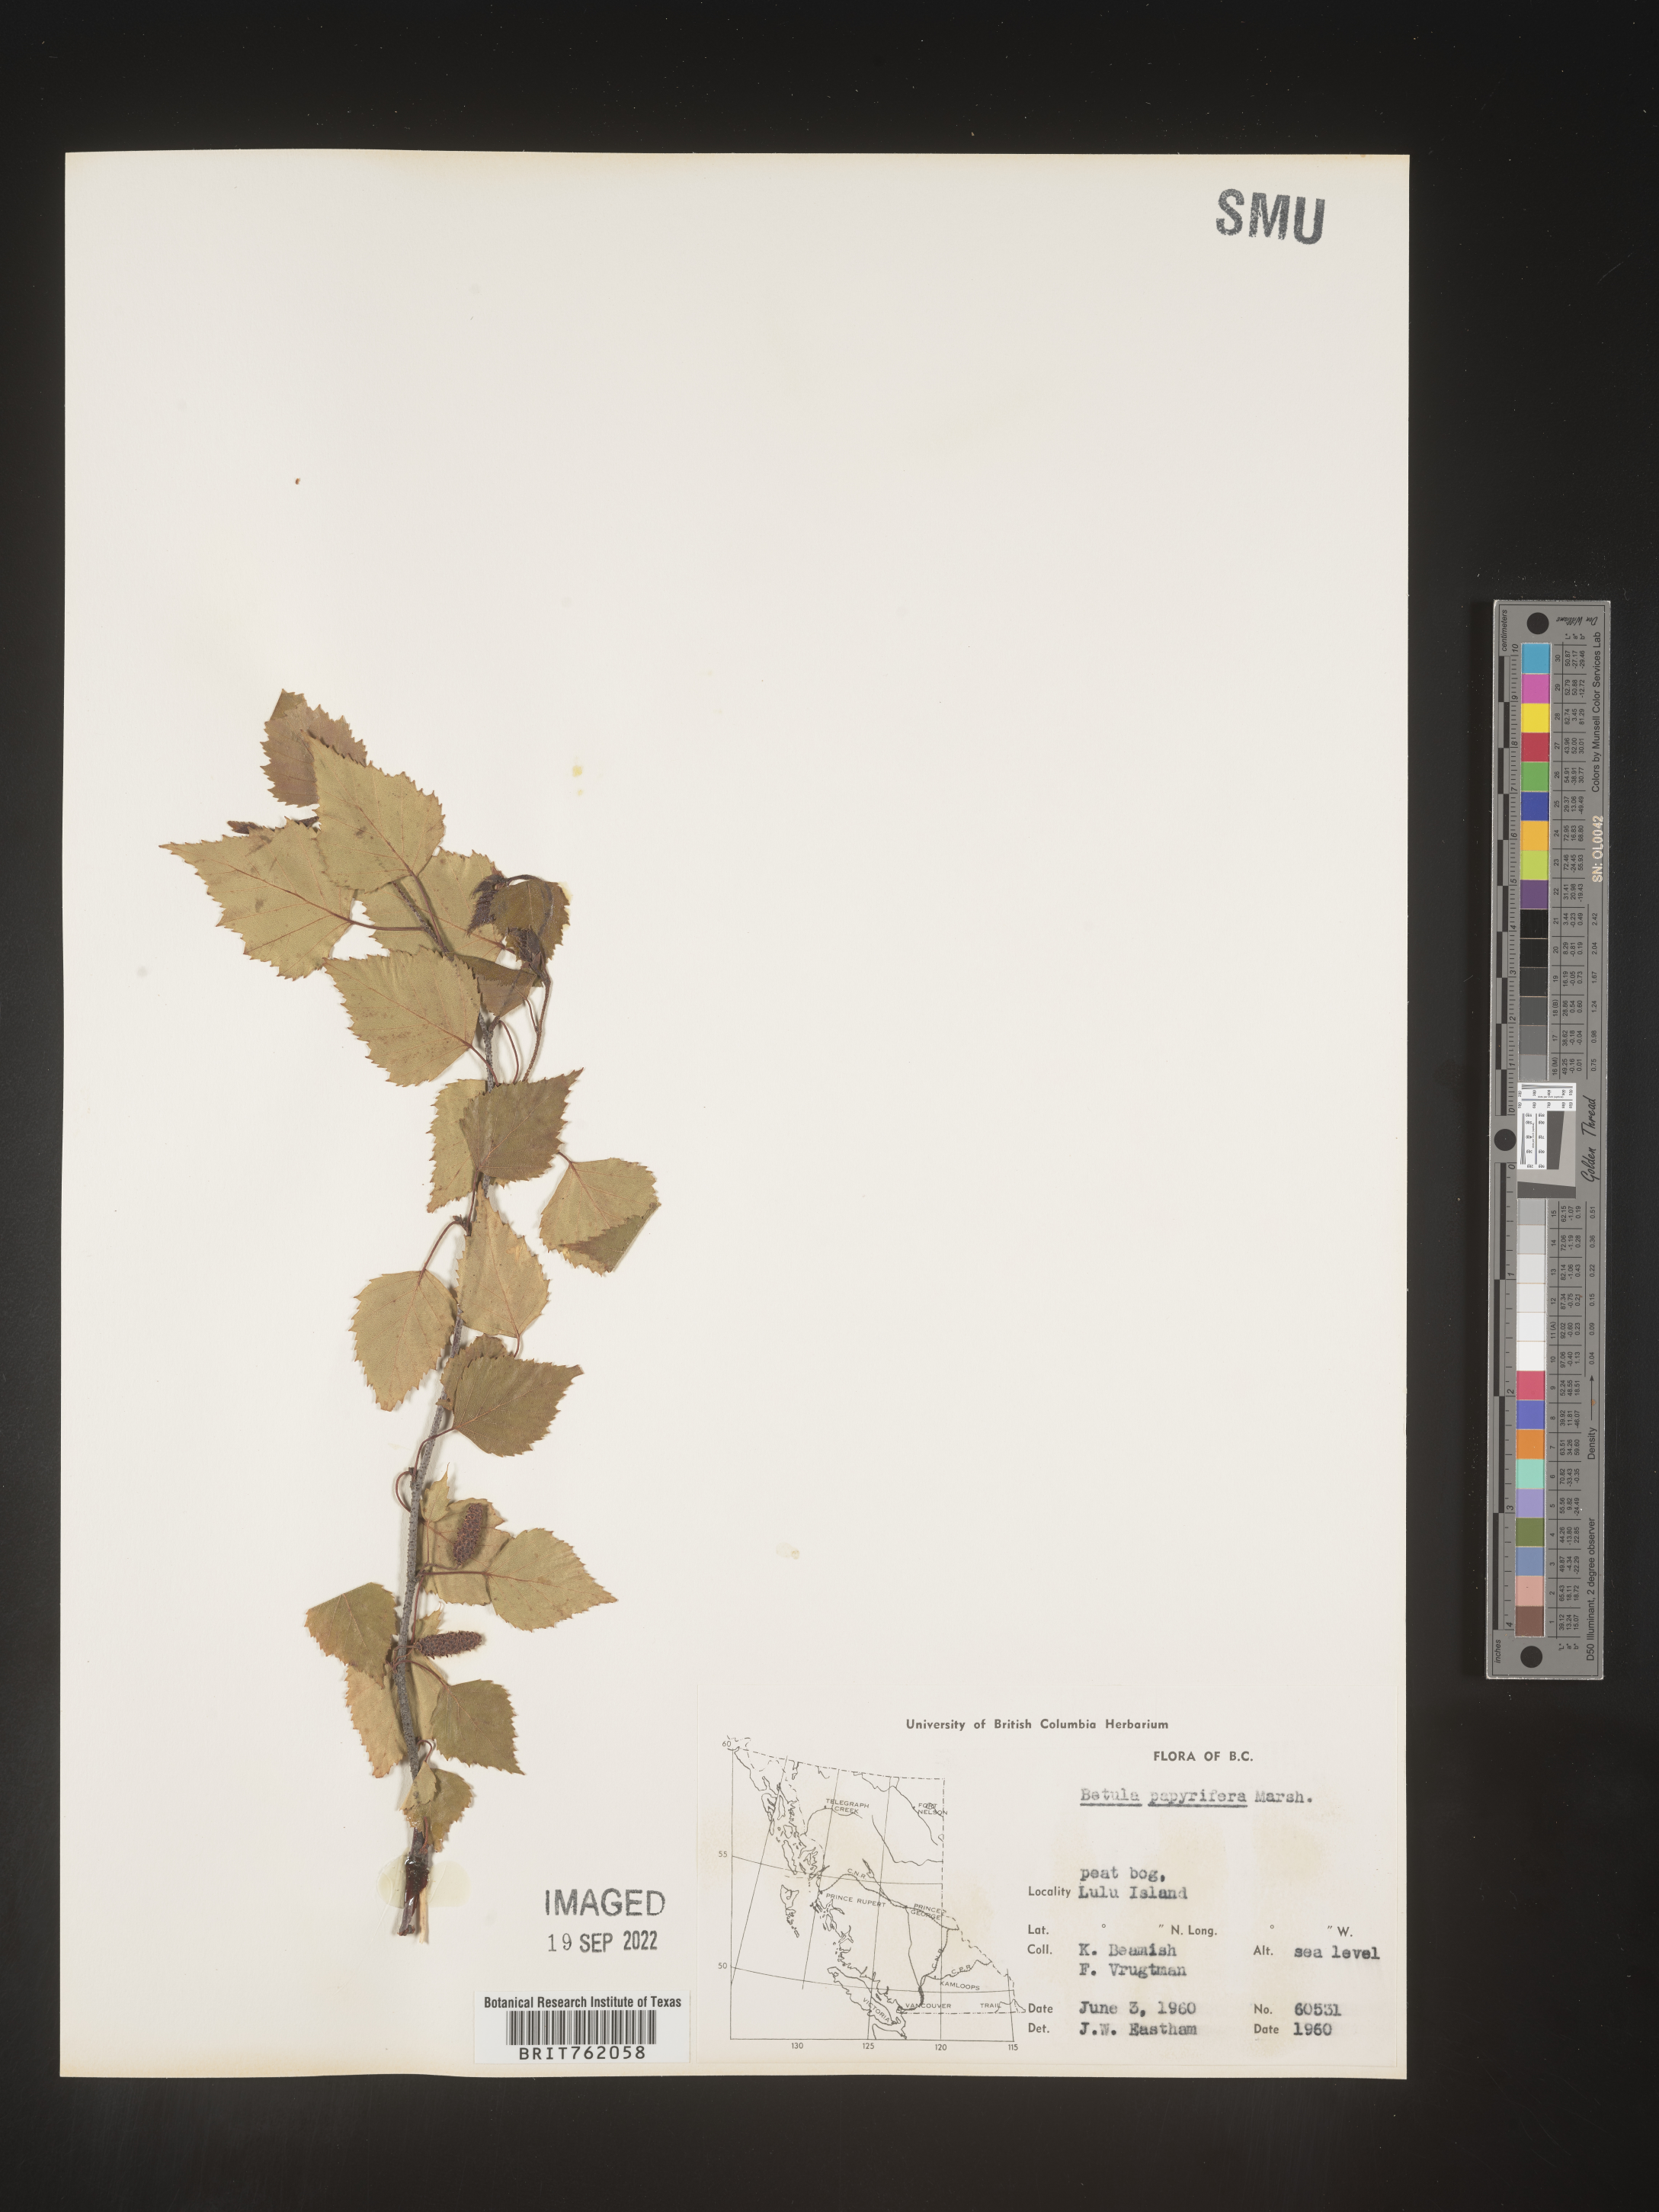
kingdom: Plantae
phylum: Tracheophyta
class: Magnoliopsida
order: Fagales
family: Betulaceae
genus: Betula
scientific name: Betula papyrifera
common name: Paper birch
